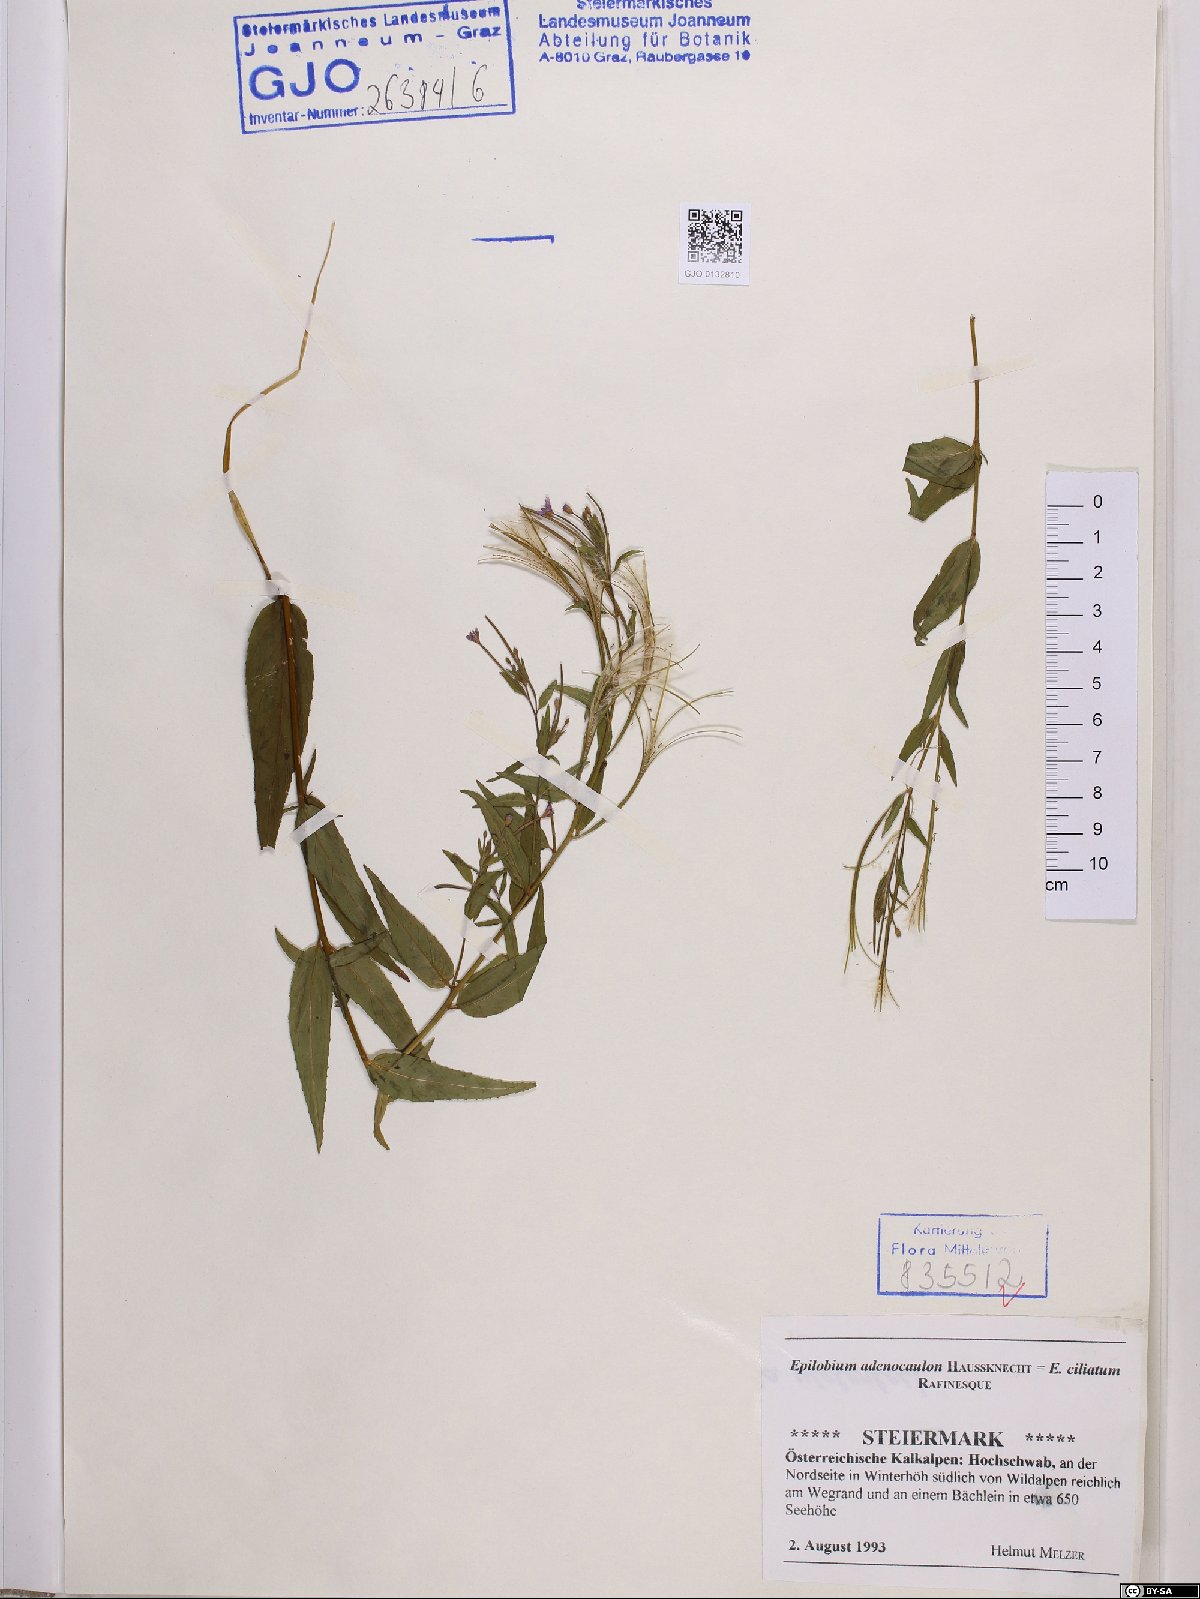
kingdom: Plantae
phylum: Tracheophyta
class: Magnoliopsida
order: Myrtales
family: Onagraceae
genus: Epilobium
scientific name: Epilobium ciliatum
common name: American willowherb
